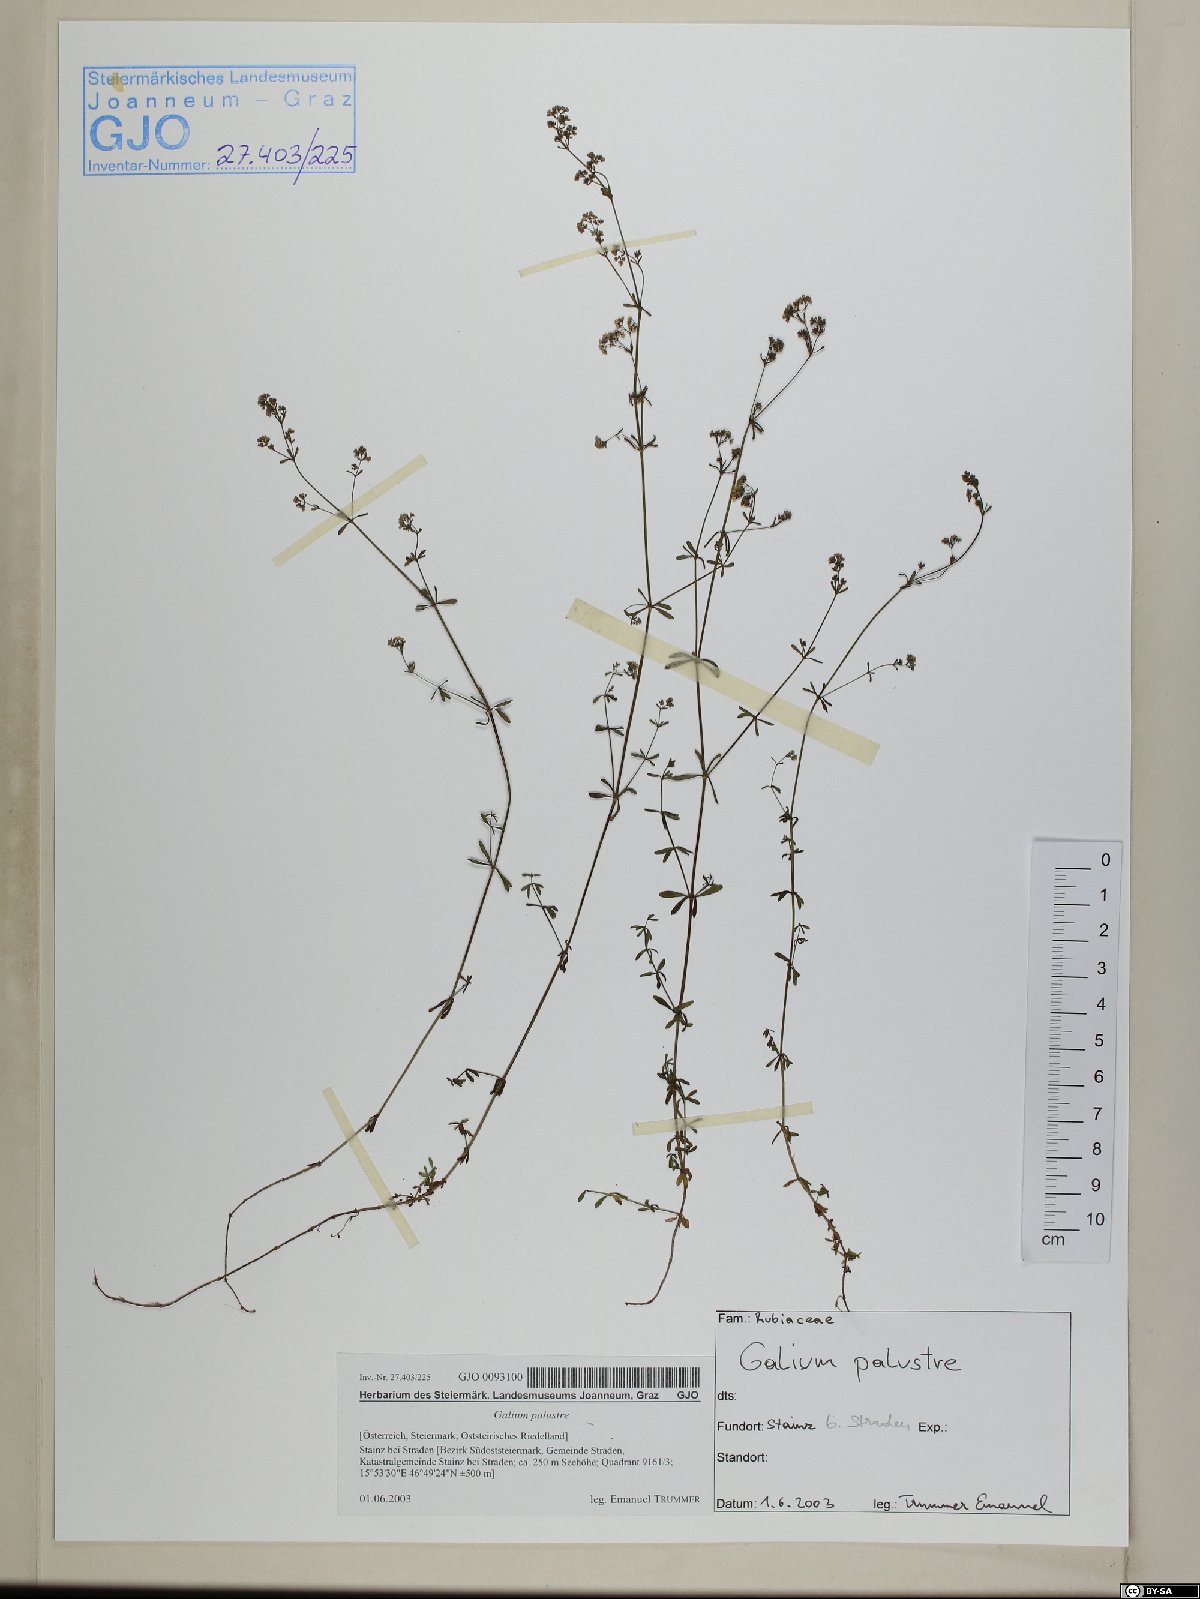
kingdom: Plantae
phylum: Tracheophyta
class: Magnoliopsida
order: Gentianales
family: Rubiaceae
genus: Galium
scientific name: Galium palustre
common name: Common marsh-bedstraw
